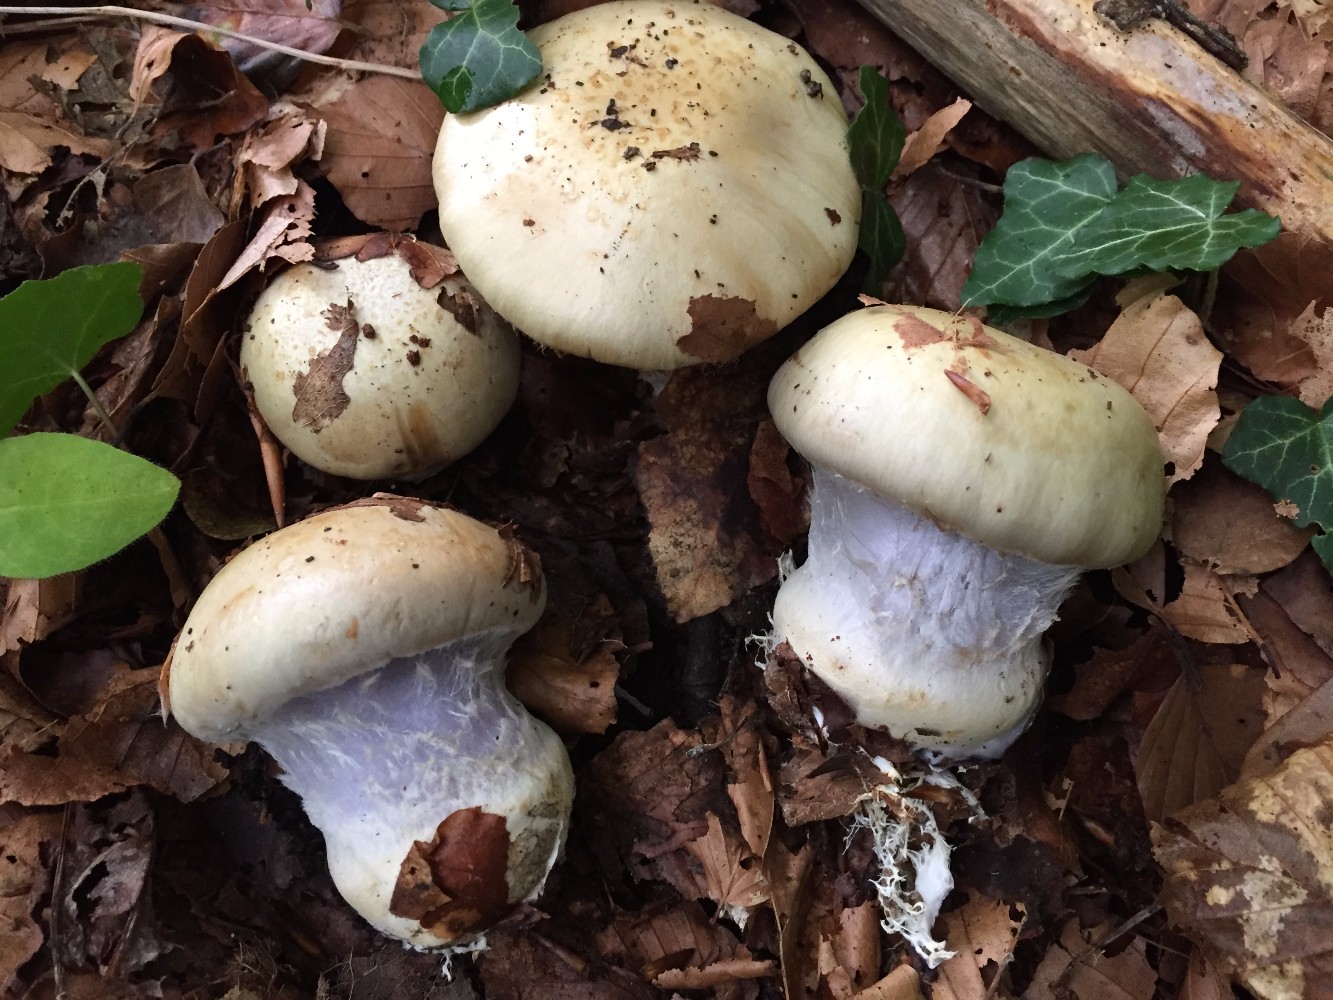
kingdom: Fungi
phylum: Basidiomycota
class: Agaricomycetes
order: Agaricales
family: Cortinariaceae
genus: Cortinarius
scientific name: Cortinarius anserinus
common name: bøge-slørhat
